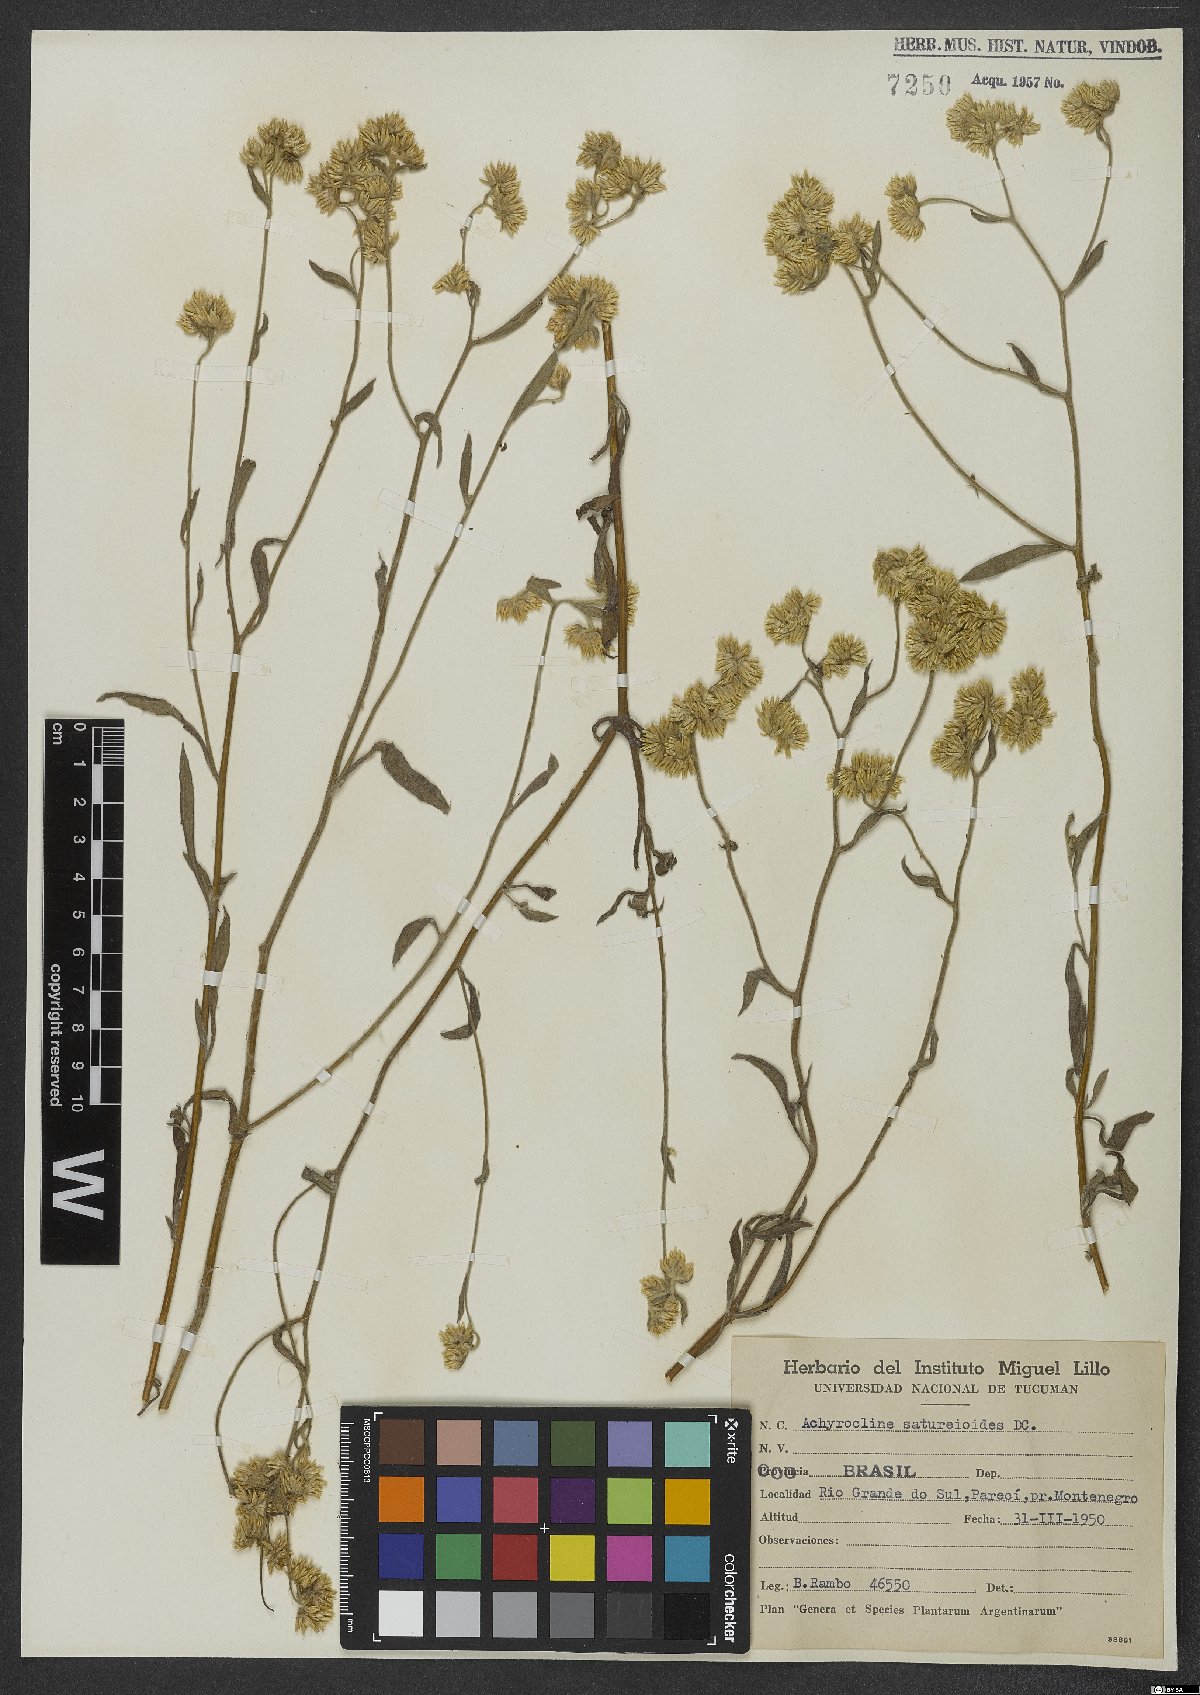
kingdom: Plantae
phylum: Tracheophyta
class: Magnoliopsida
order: Asterales
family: Asteraceae
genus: Achyrocline
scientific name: Achyrocline satureioides
